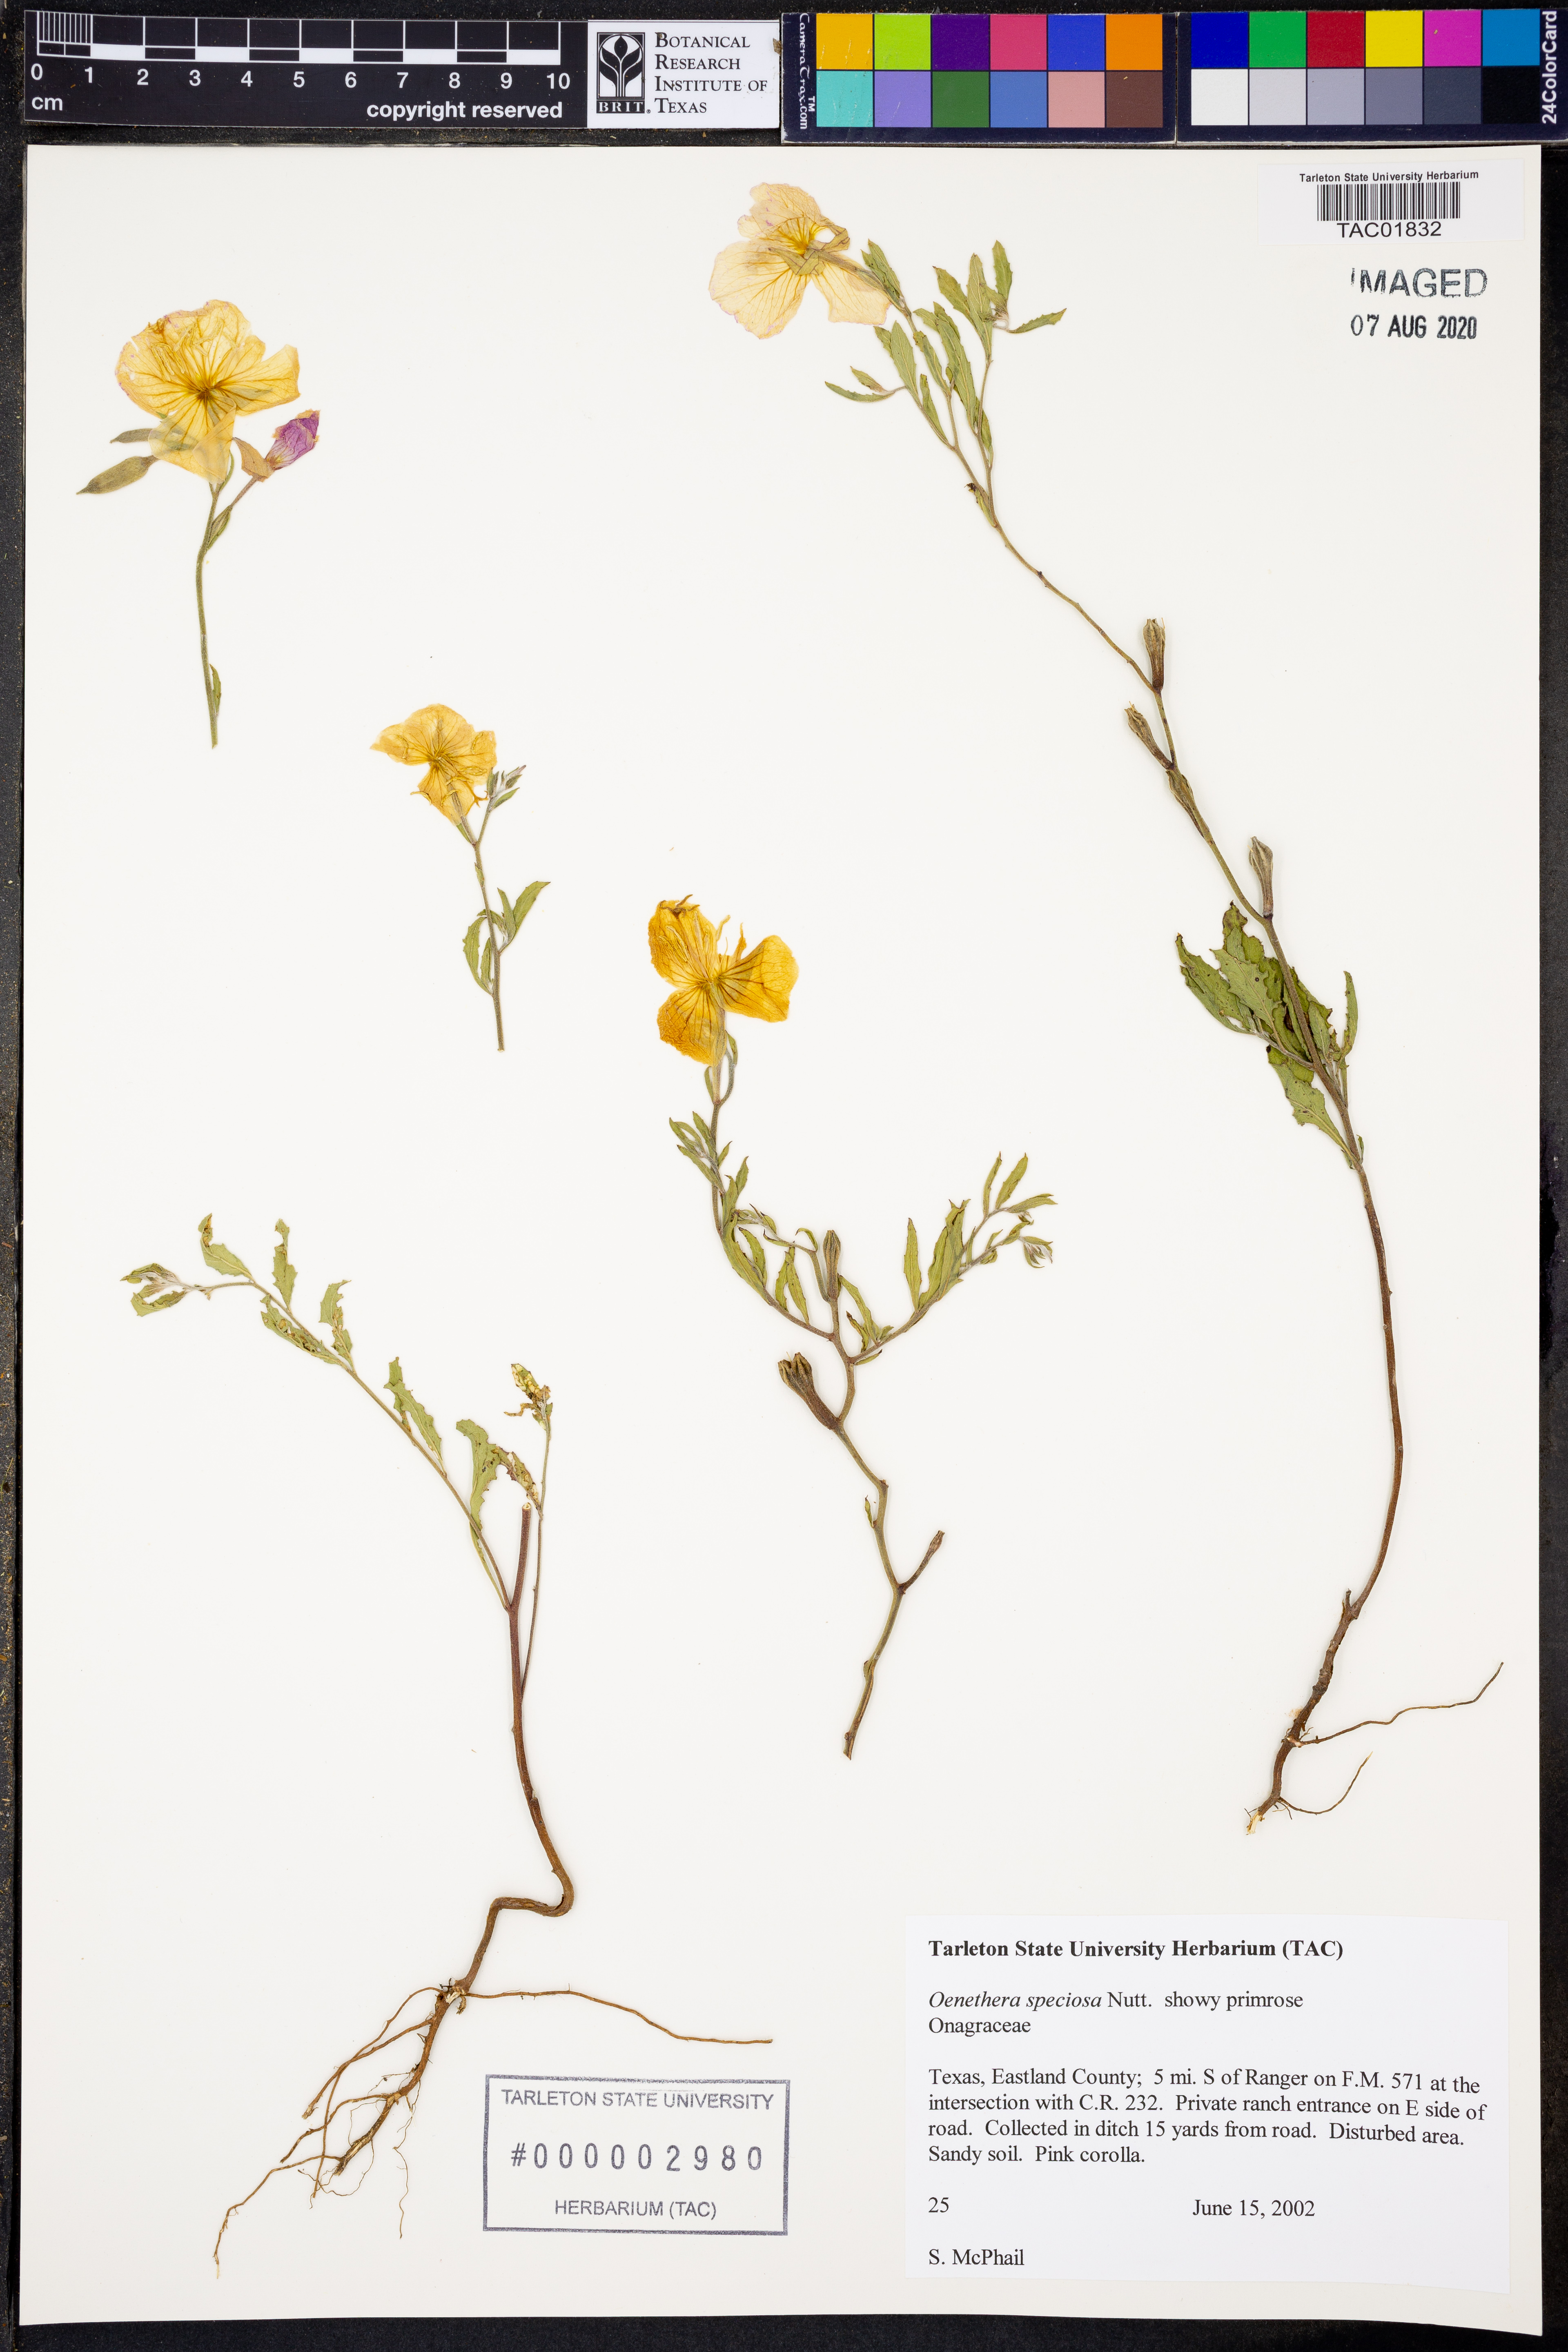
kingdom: Plantae
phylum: Tracheophyta
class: Magnoliopsida
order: Myrtales
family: Onagraceae
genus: Oenothera
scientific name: Oenothera speciosa
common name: White evening-primrose
